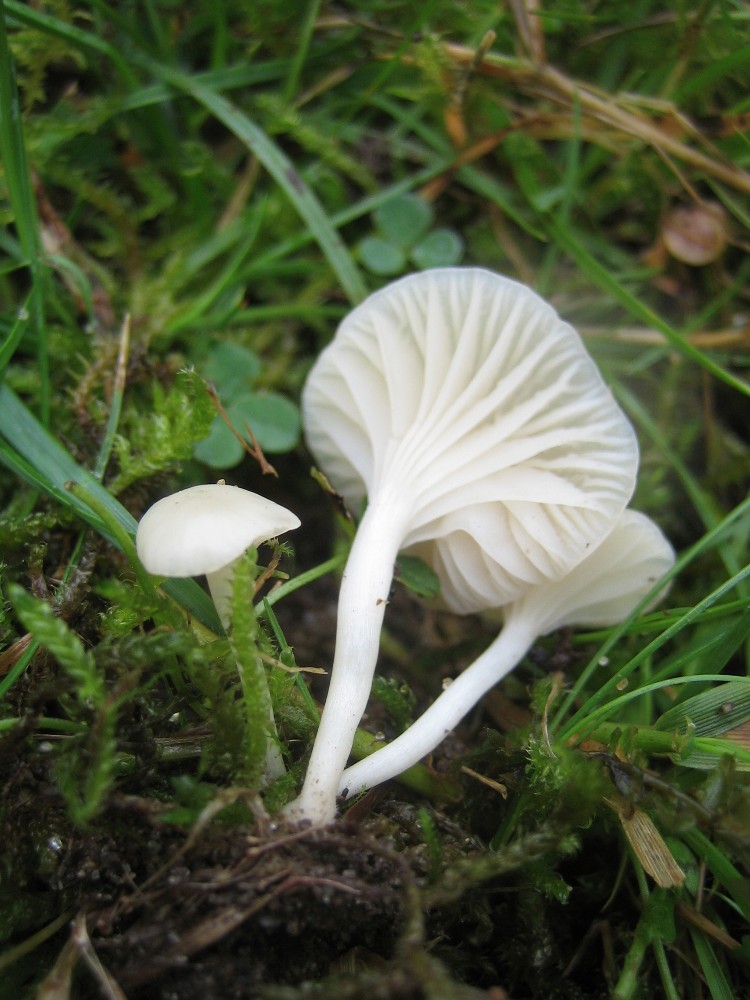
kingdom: Fungi
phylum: Basidiomycota
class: Agaricomycetes
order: Agaricales
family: Hygrophoraceae
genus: Cuphophyllus
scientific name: Cuphophyllus virgineus
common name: snehvid vokshat
